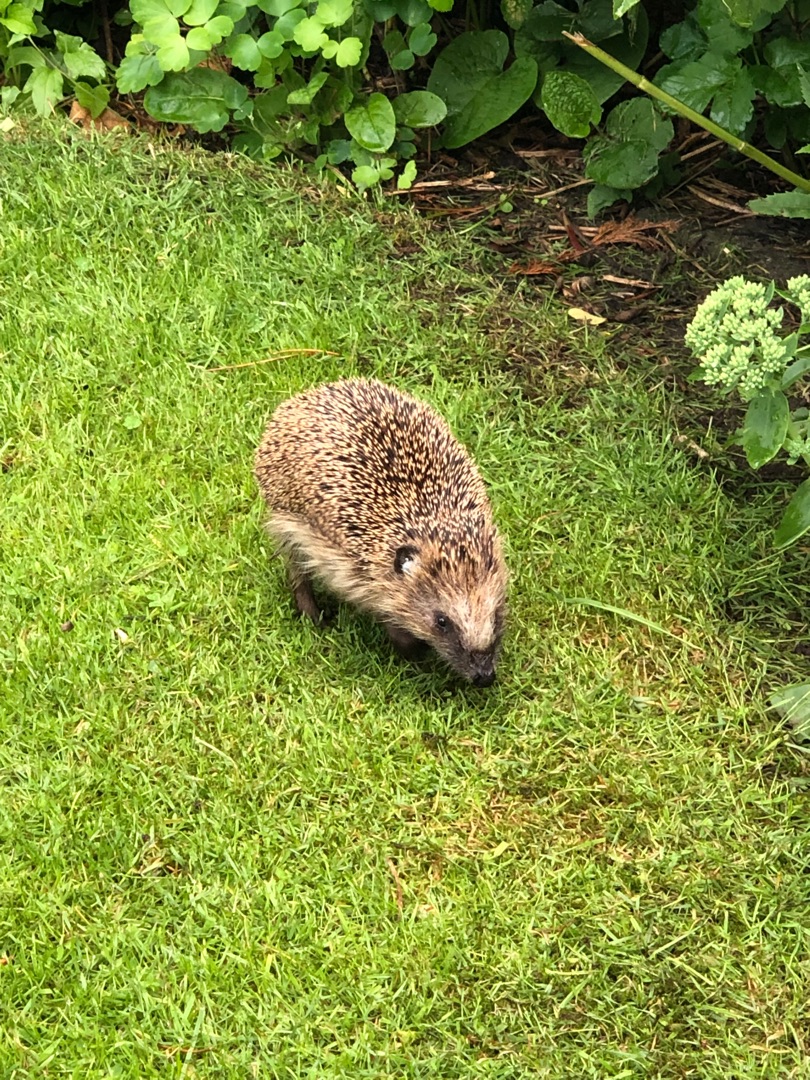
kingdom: Animalia
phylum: Chordata
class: Mammalia
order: Erinaceomorpha
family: Erinaceidae
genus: Erinaceus
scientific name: Erinaceus europaeus
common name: Pindsvin
